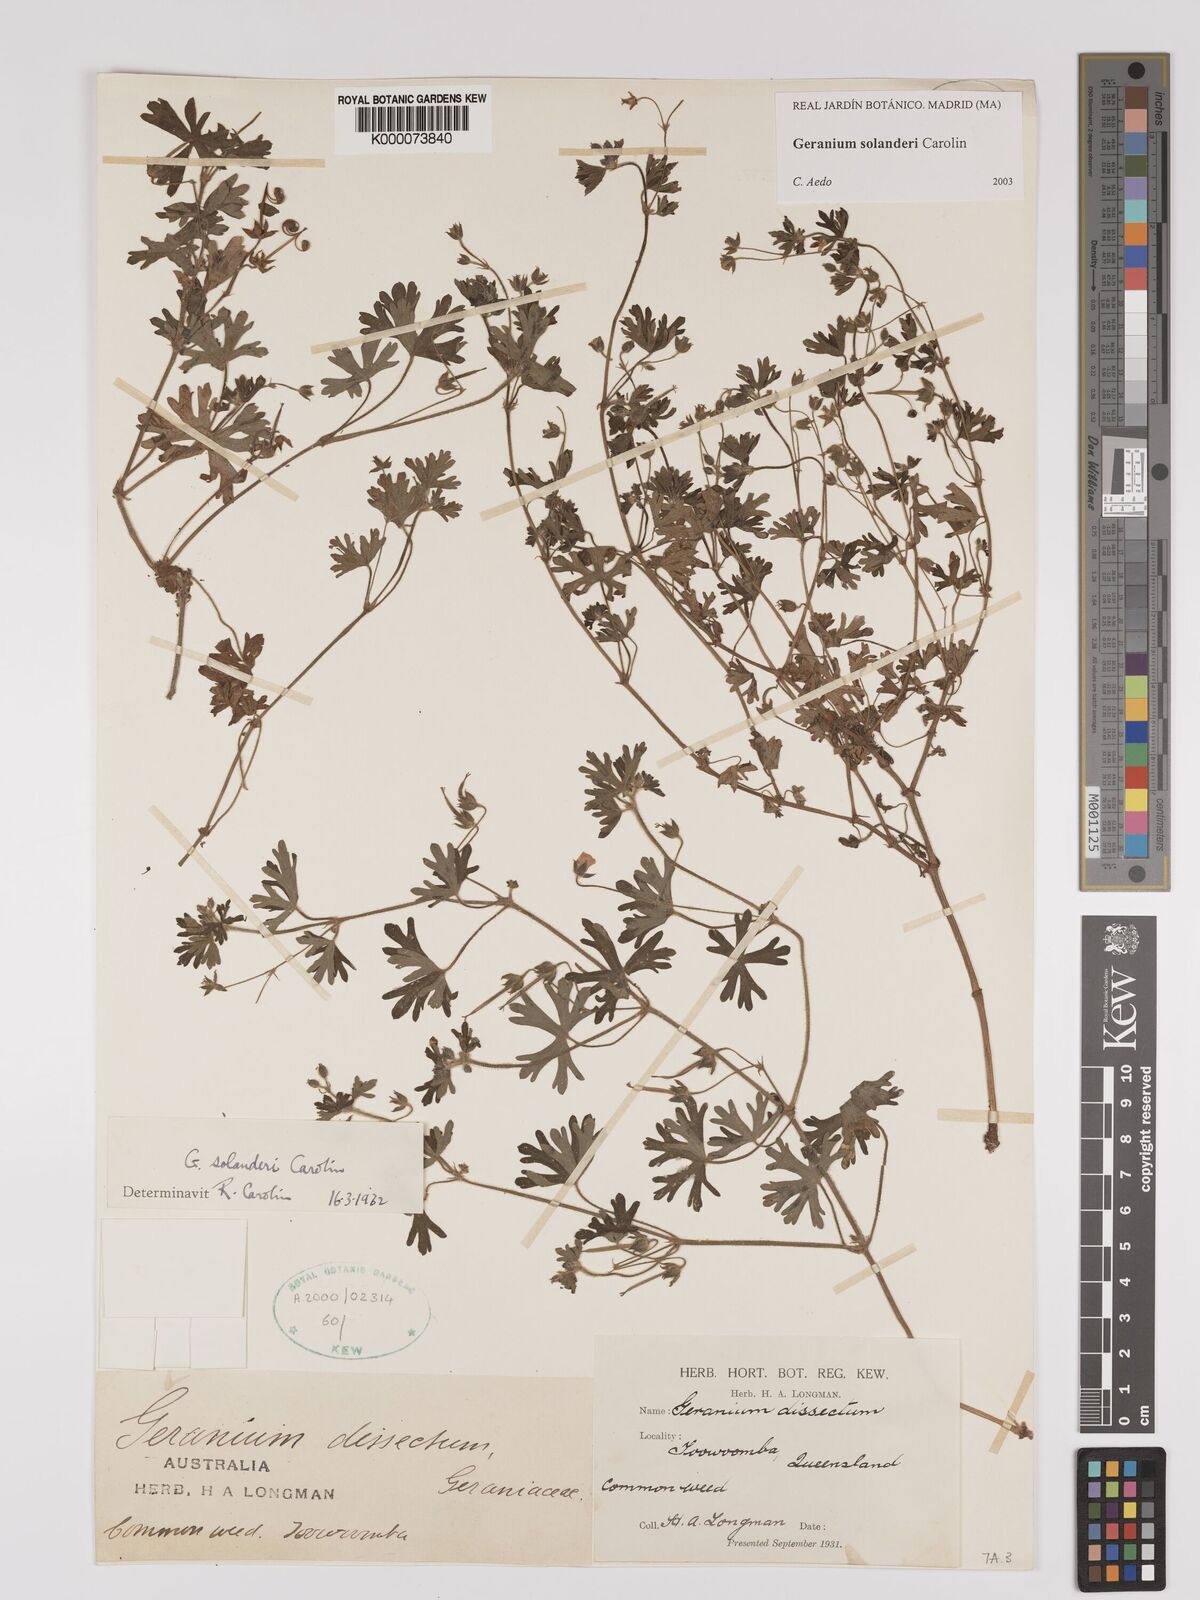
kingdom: Plantae
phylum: Tracheophyta
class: Magnoliopsida
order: Geraniales
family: Geraniaceae
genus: Geranium
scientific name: Geranium solanderi
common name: Solander's geranium
